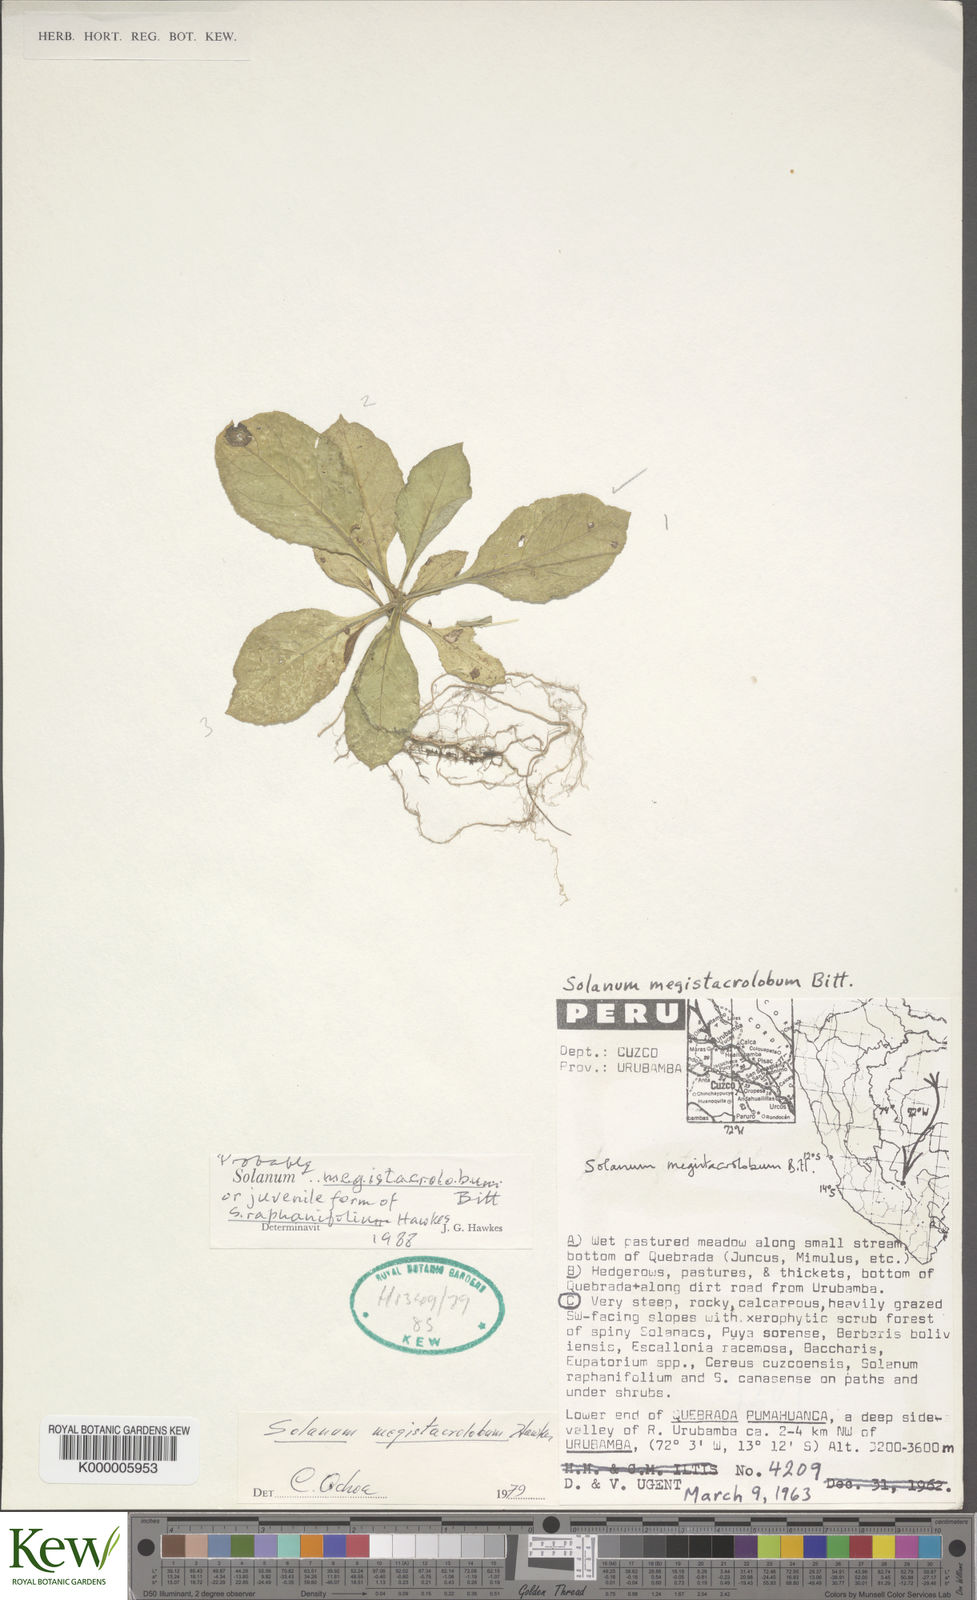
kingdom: Plantae
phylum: Tracheophyta
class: Magnoliopsida
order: Solanales
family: Solanaceae
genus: Solanum
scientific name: Solanum boliviense
